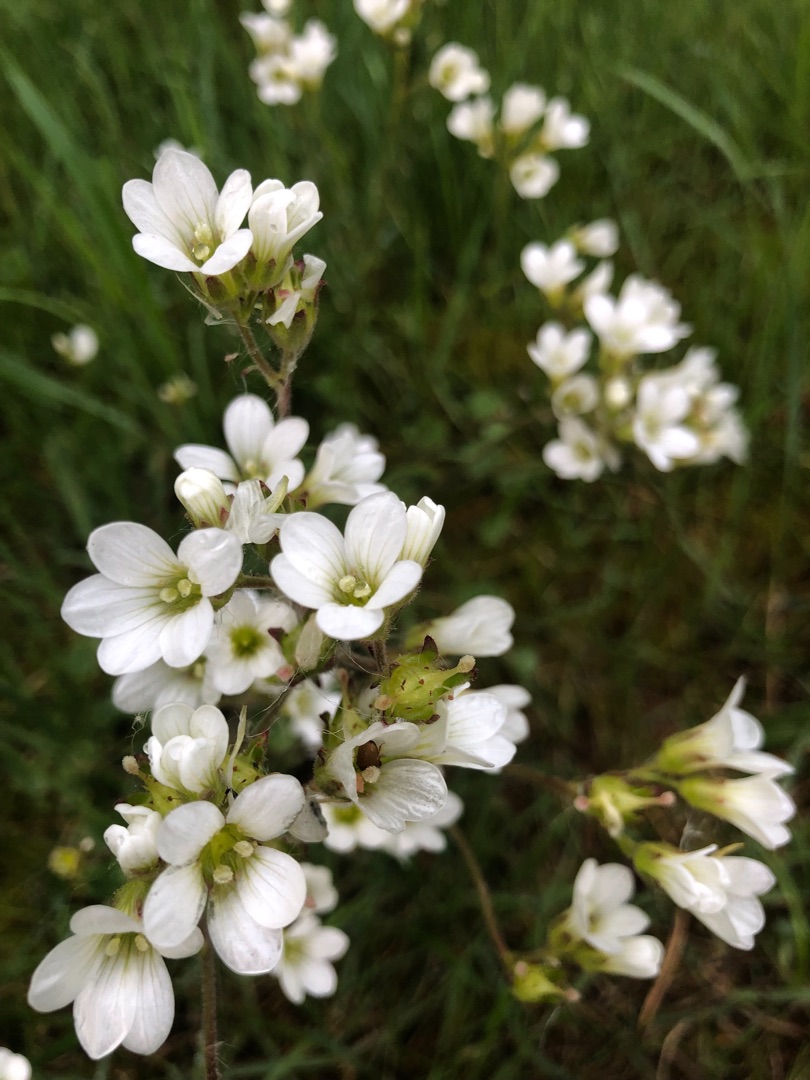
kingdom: Plantae
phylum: Tracheophyta
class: Magnoliopsida
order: Saxifragales
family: Saxifragaceae
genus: Saxifraga
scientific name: Saxifraga granulata
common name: Kornet stenbræk
